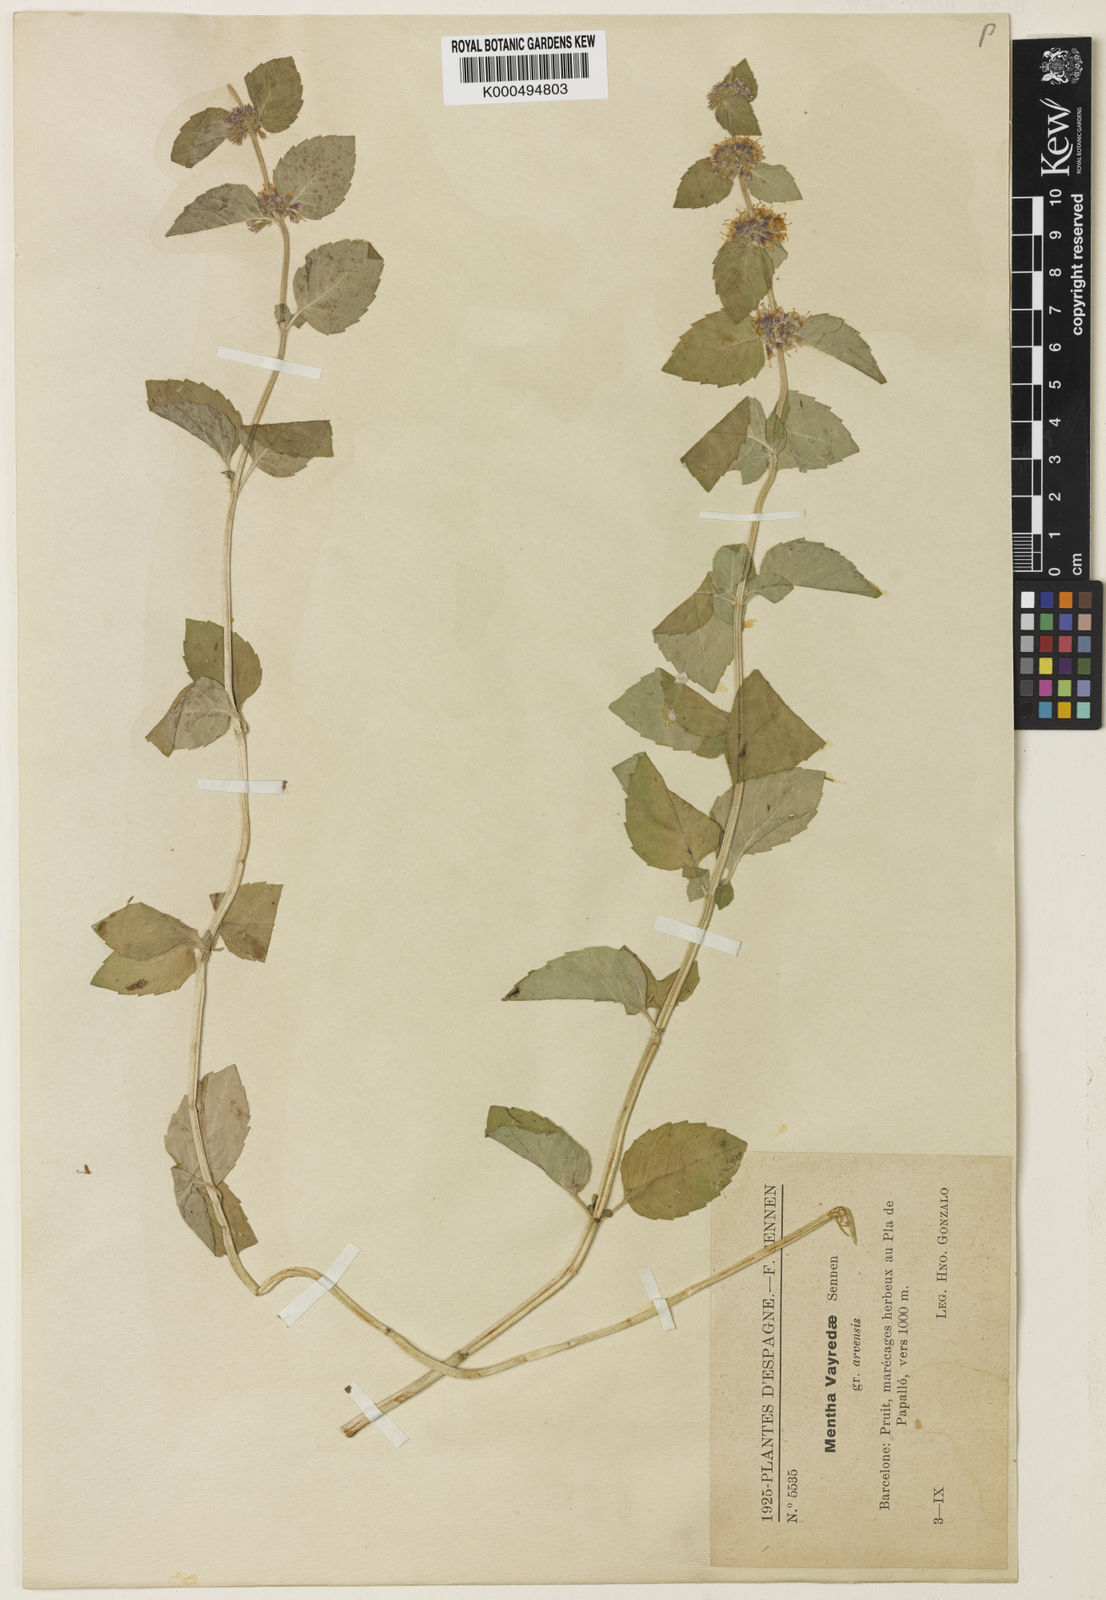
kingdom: Plantae
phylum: Tracheophyta
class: Magnoliopsida
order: Lamiales
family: Lamiaceae
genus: Mentha
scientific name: Mentha verticillata
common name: Mint
